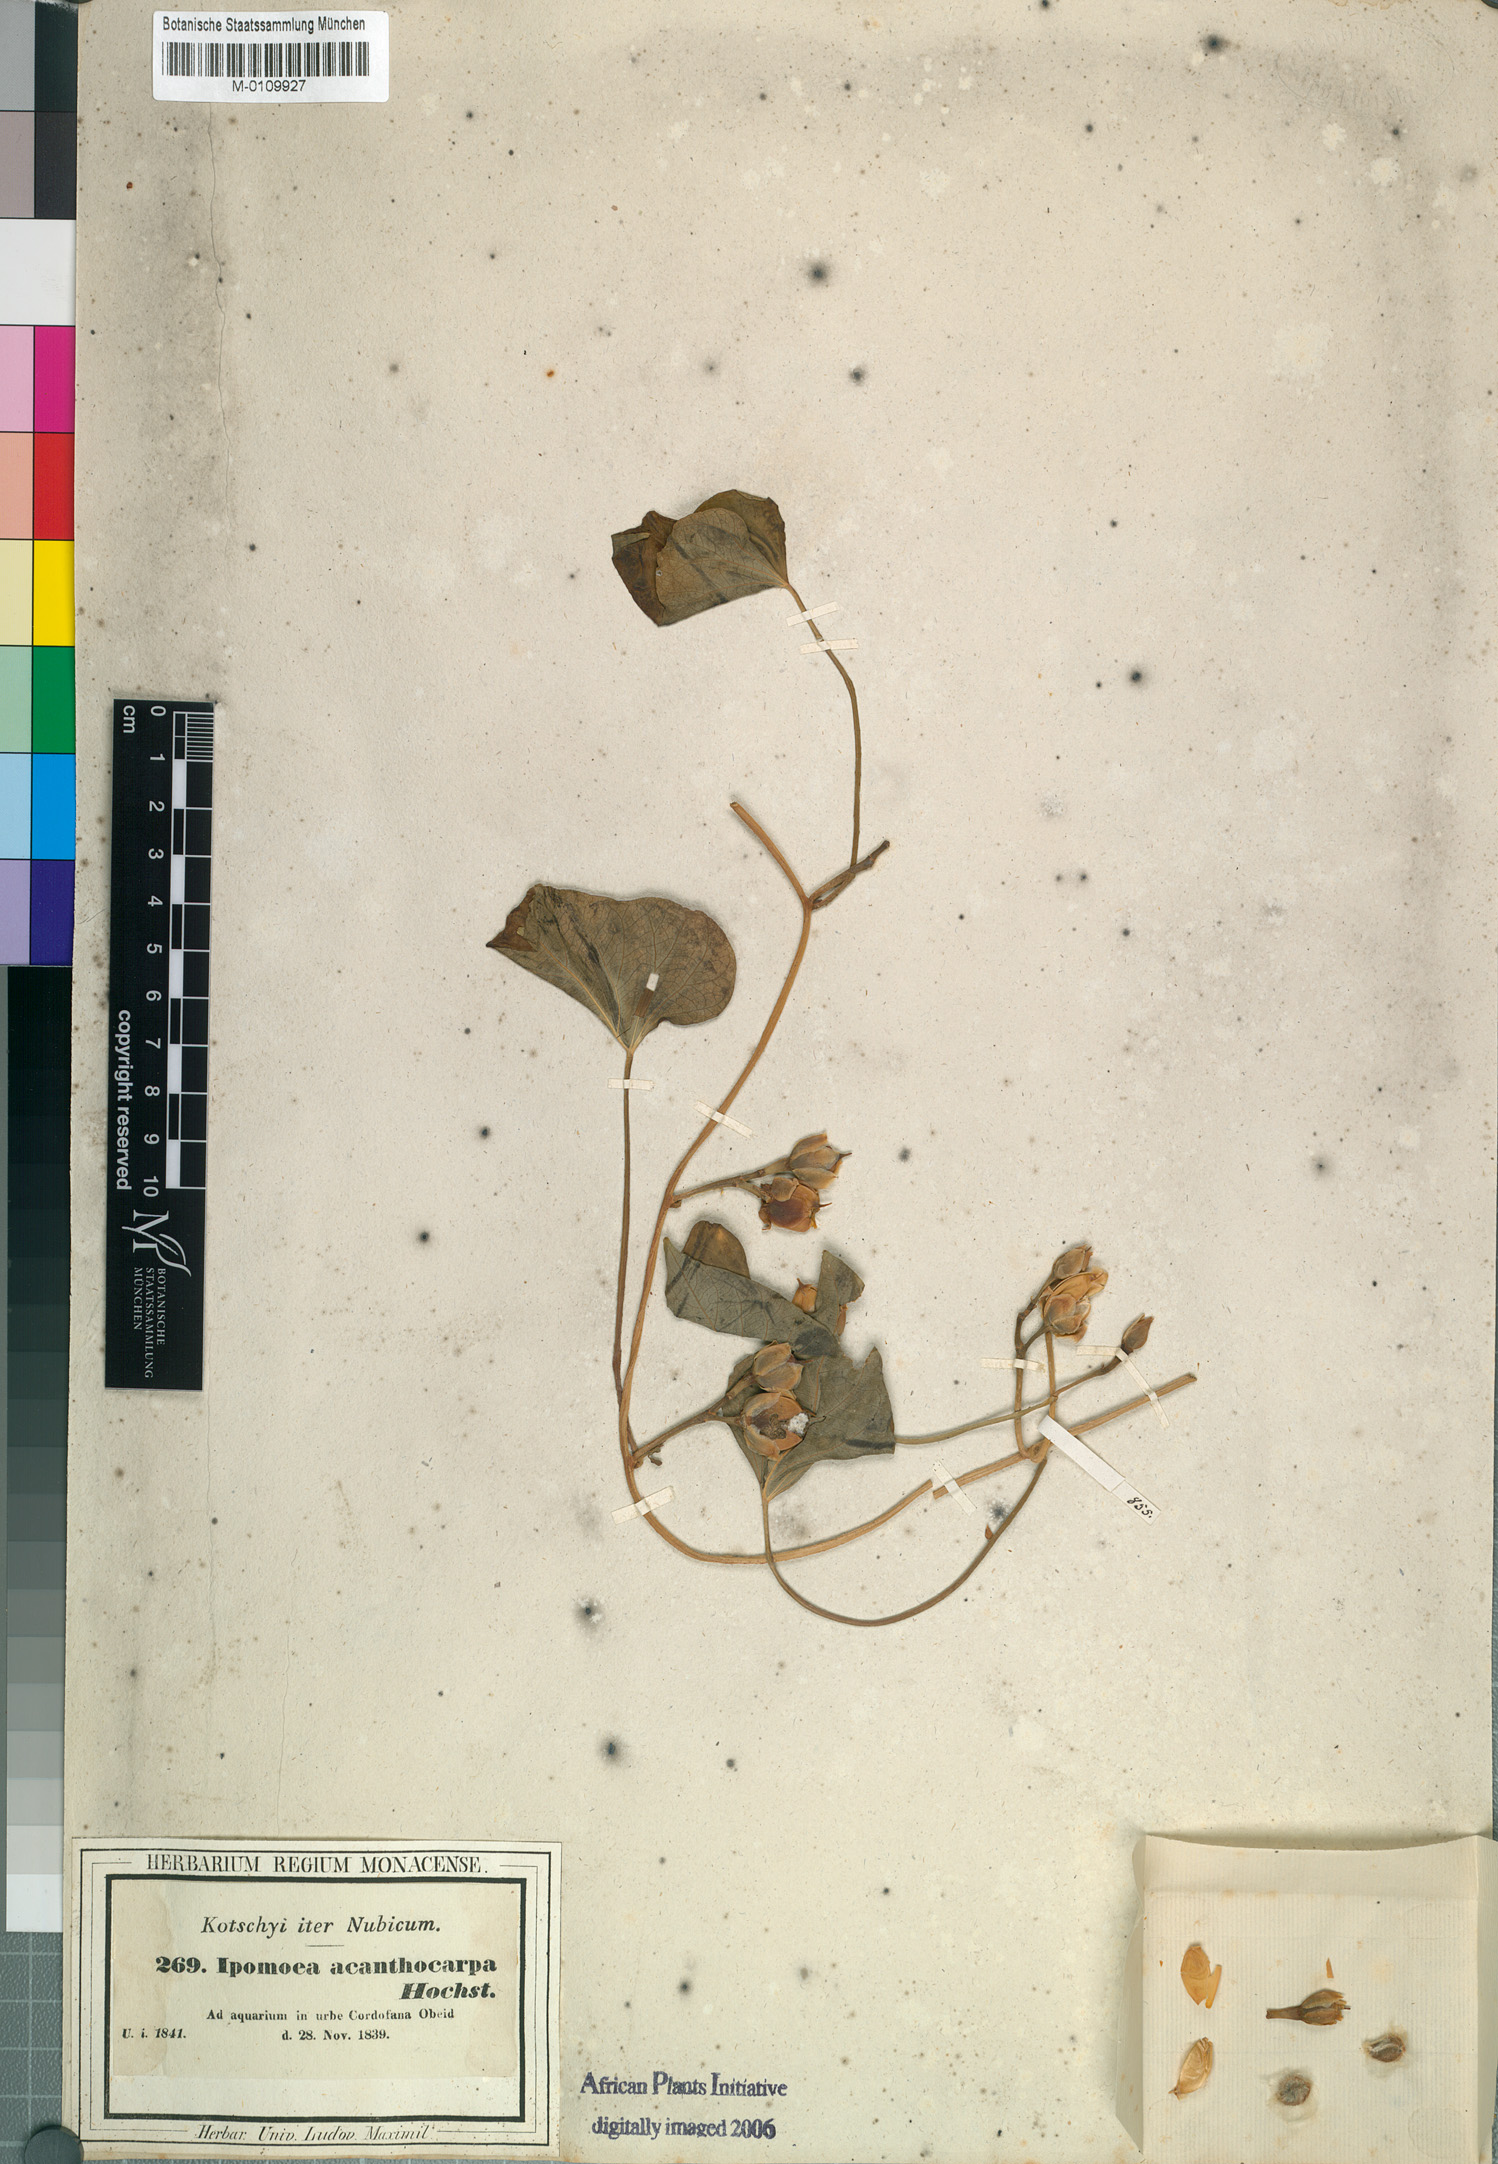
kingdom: Plantae
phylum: Tracheophyta
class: Magnoliopsida
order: Solanales
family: Convolvulaceae
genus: Ipomoea
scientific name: Ipomoea acanthocarpa
